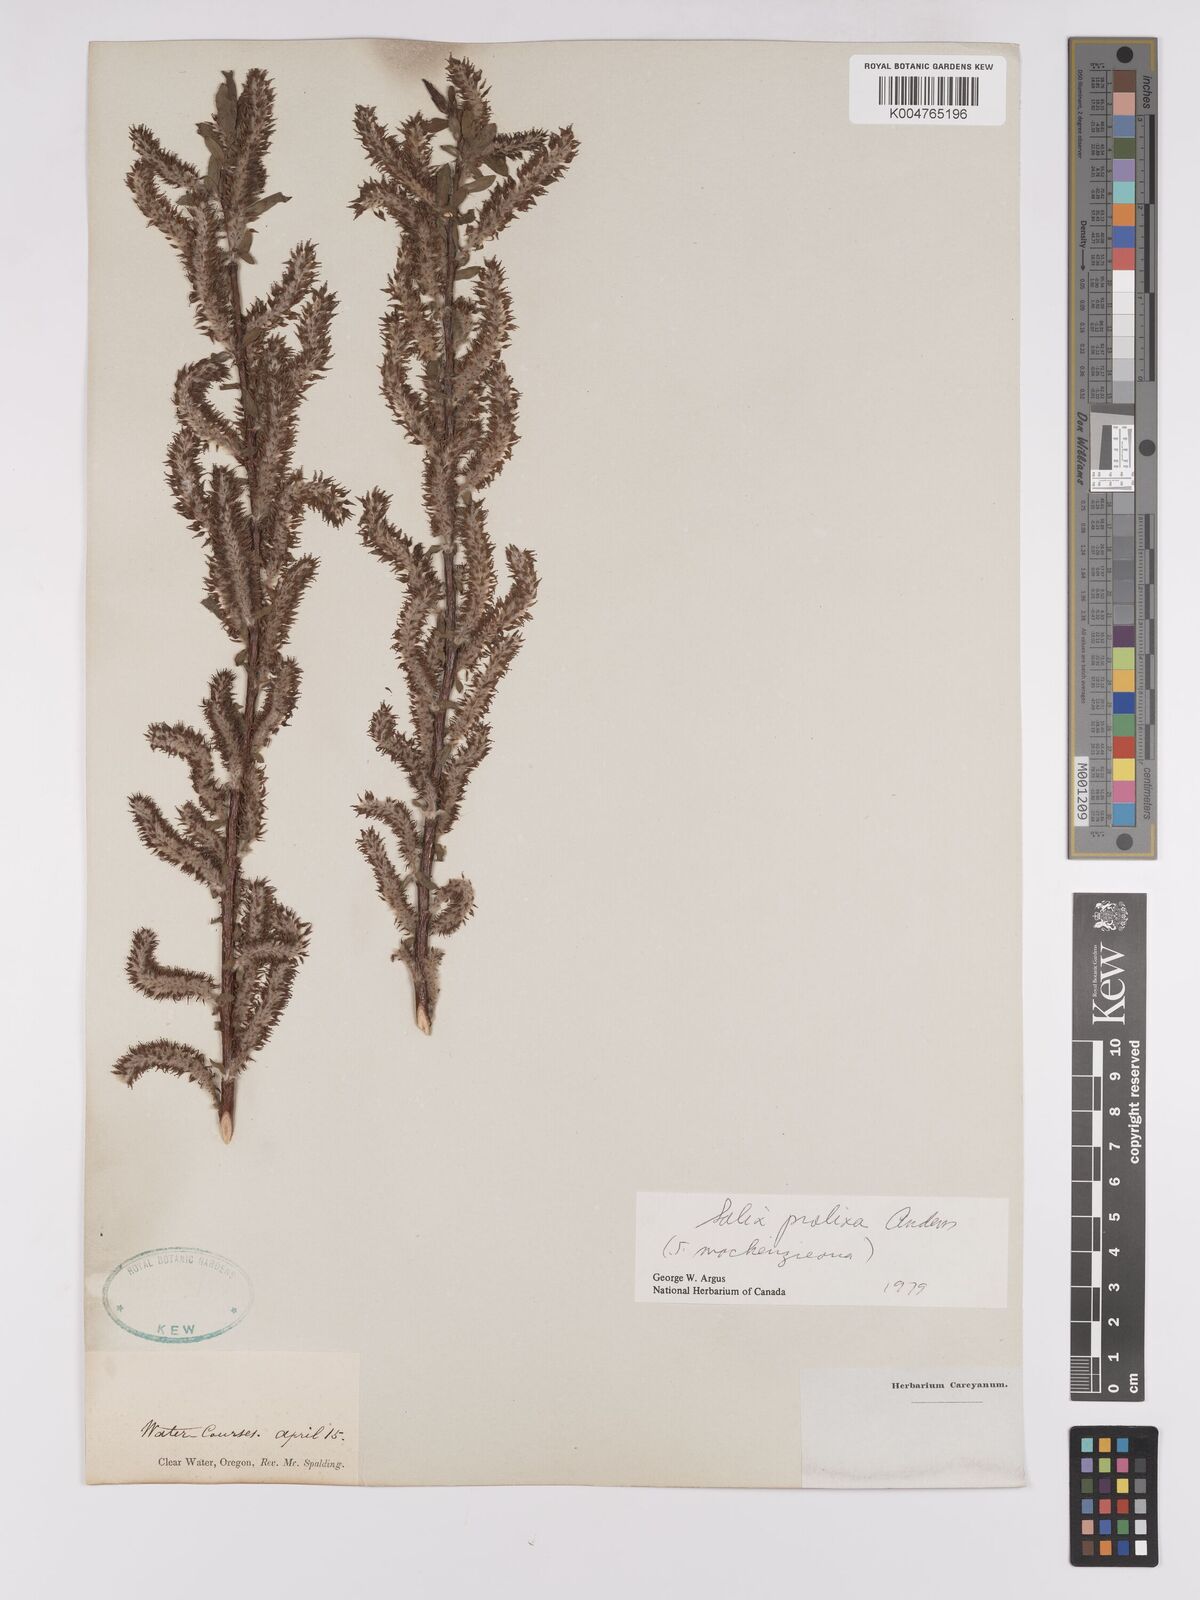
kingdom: Plantae
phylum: Tracheophyta
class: Magnoliopsida
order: Malpighiales
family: Salicaceae
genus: Salix
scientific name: Salix prolixa
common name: Mackenzie's willow
